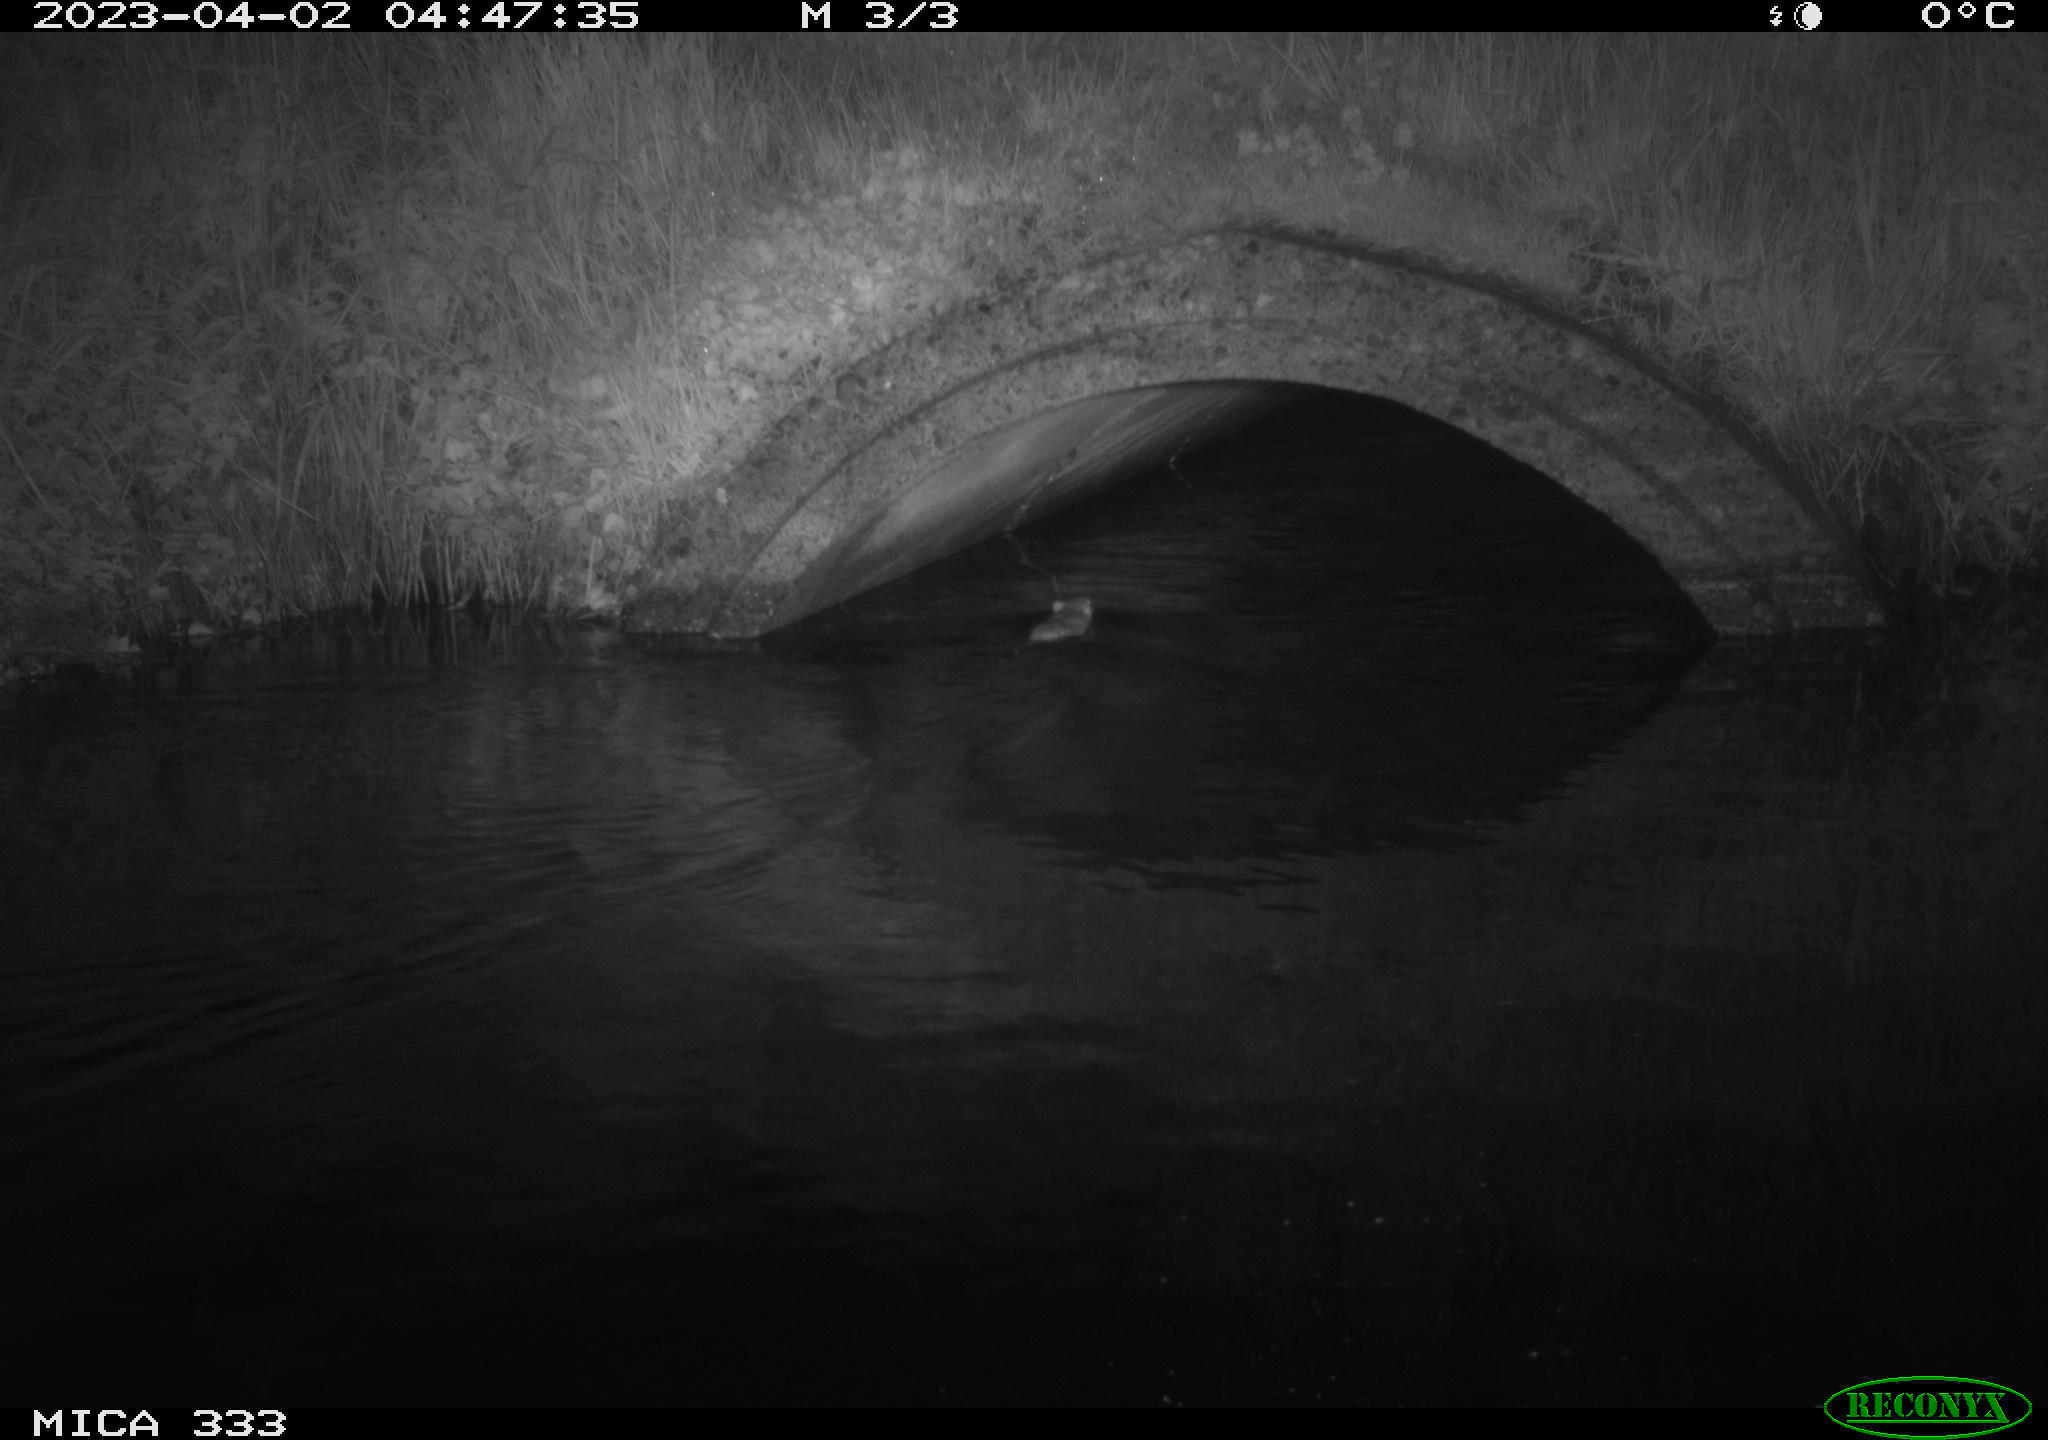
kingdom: Animalia
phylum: Chordata
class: Mammalia
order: Rodentia
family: Muridae
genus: Rattus
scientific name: Rattus norvegicus
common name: Brown rat
